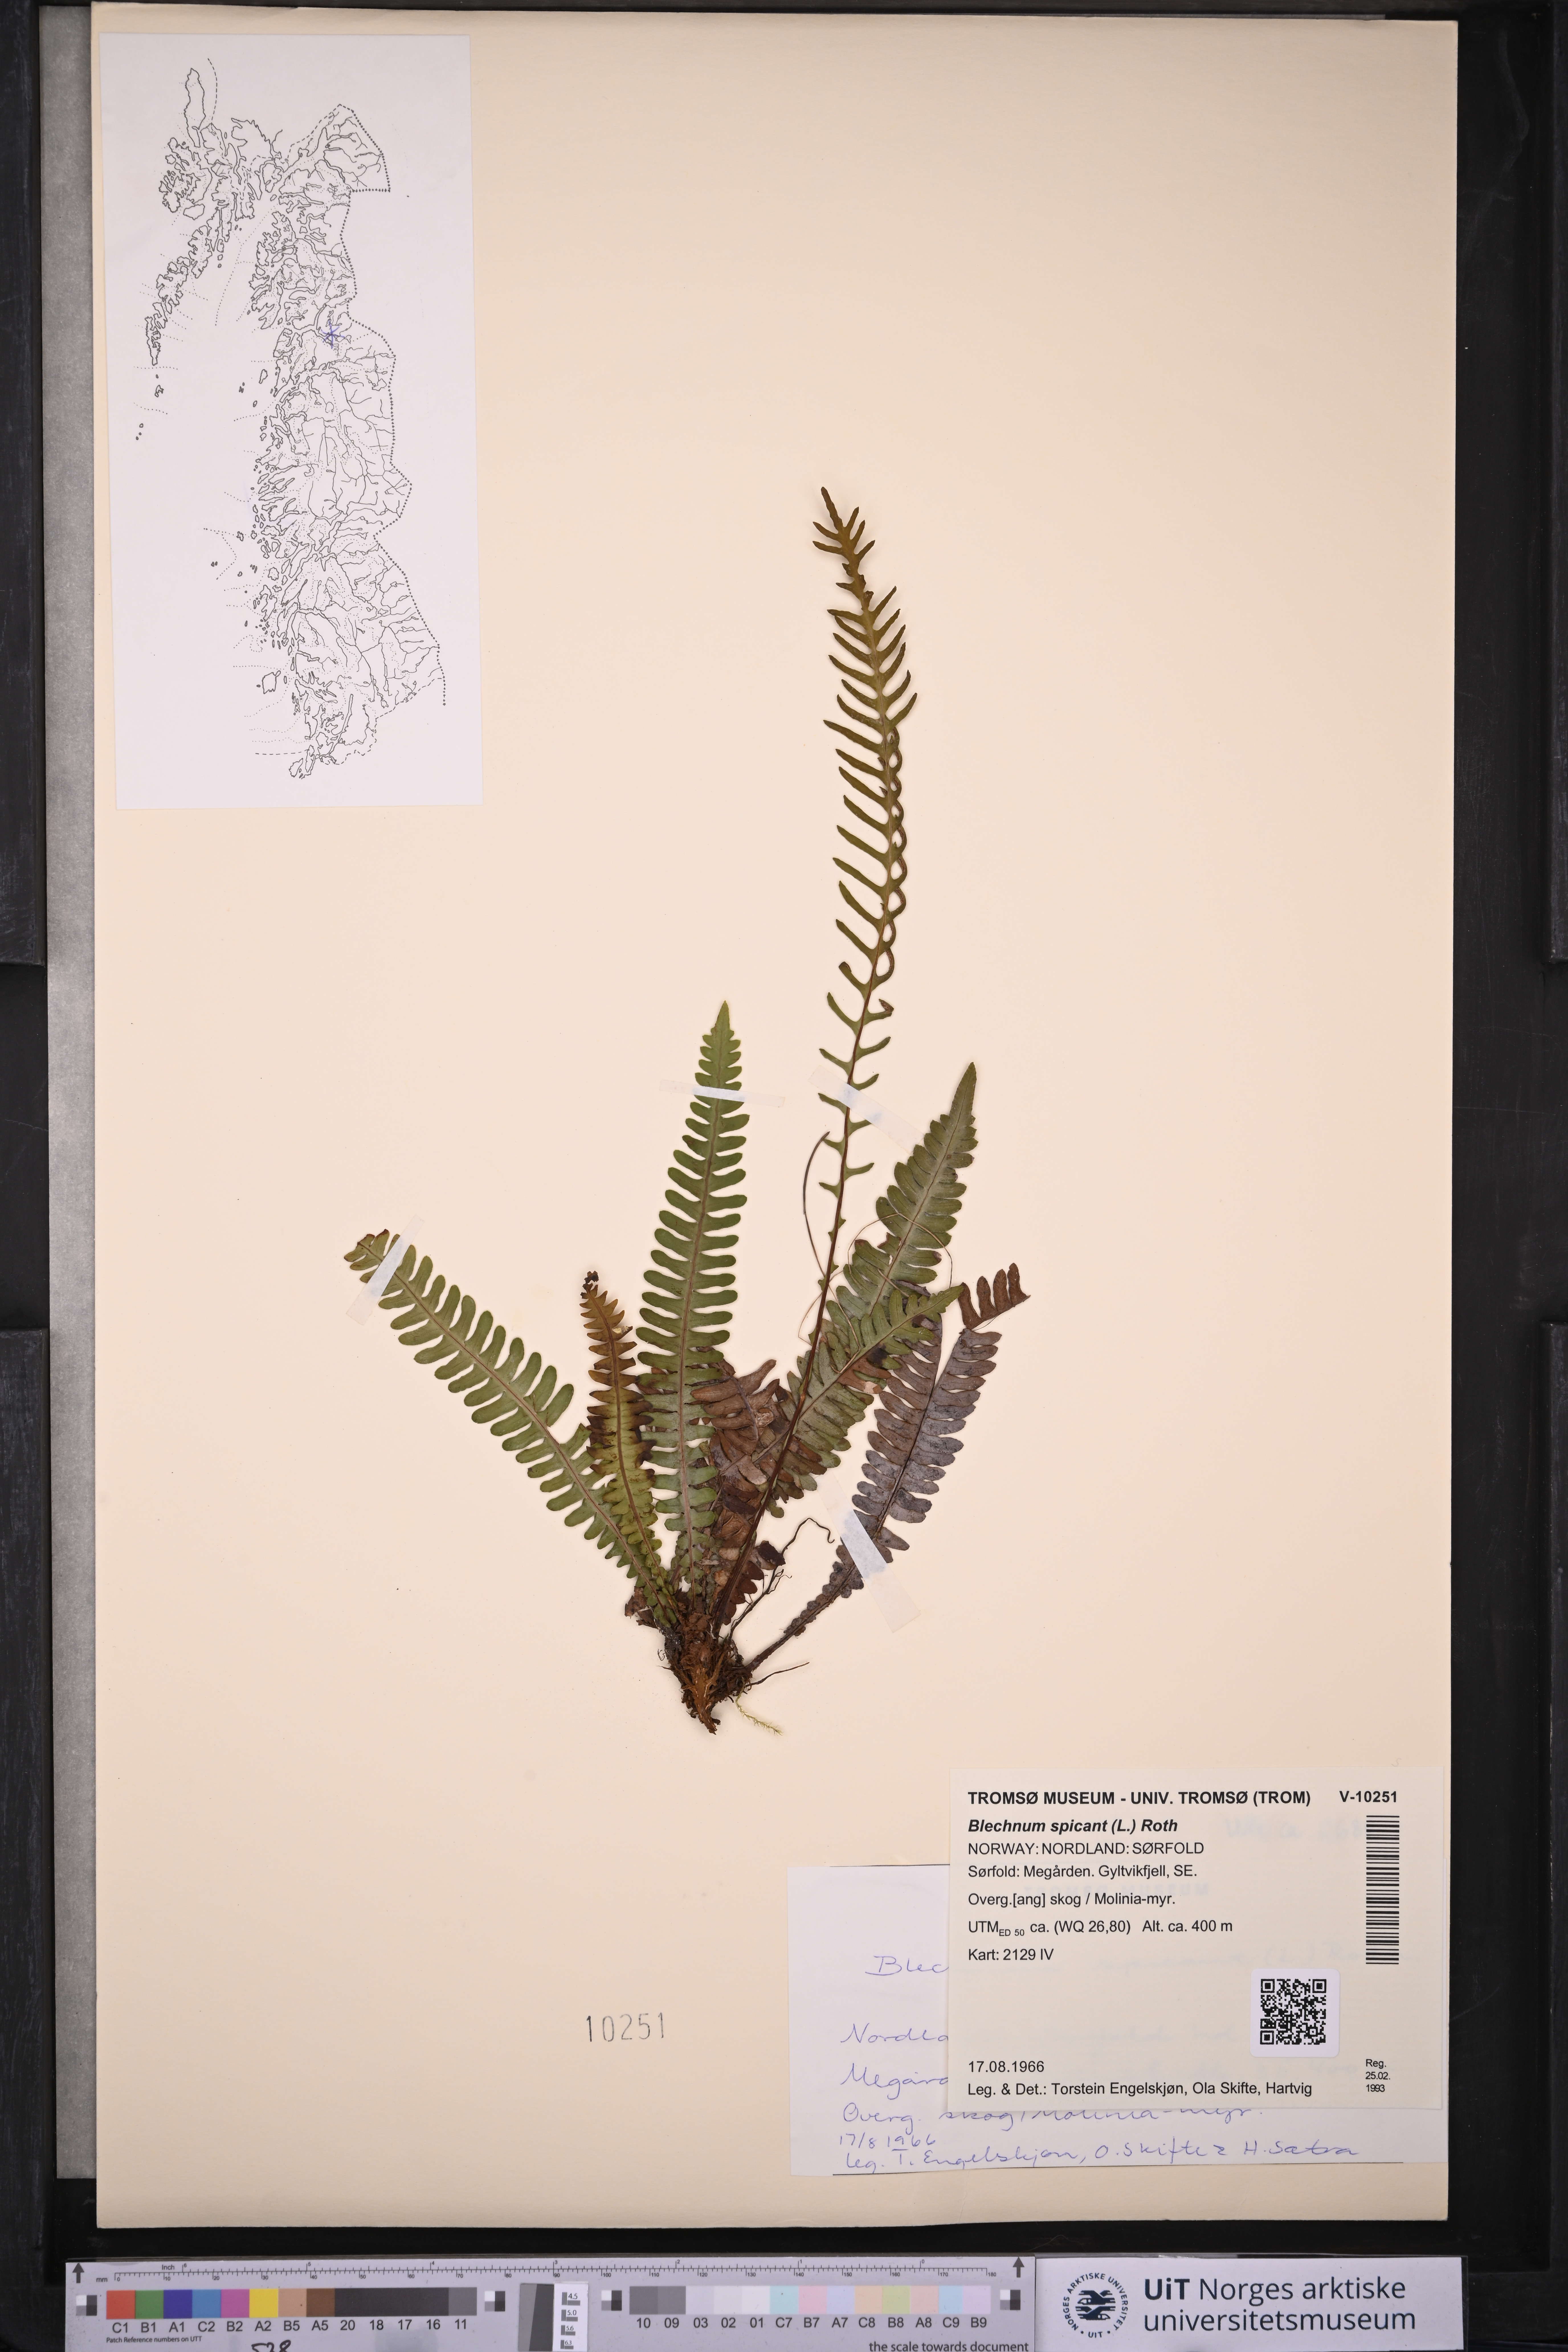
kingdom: Plantae
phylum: Tracheophyta
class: Polypodiopsida
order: Polypodiales
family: Blechnaceae
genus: Struthiopteris
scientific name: Struthiopteris spicant
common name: Deer fern
